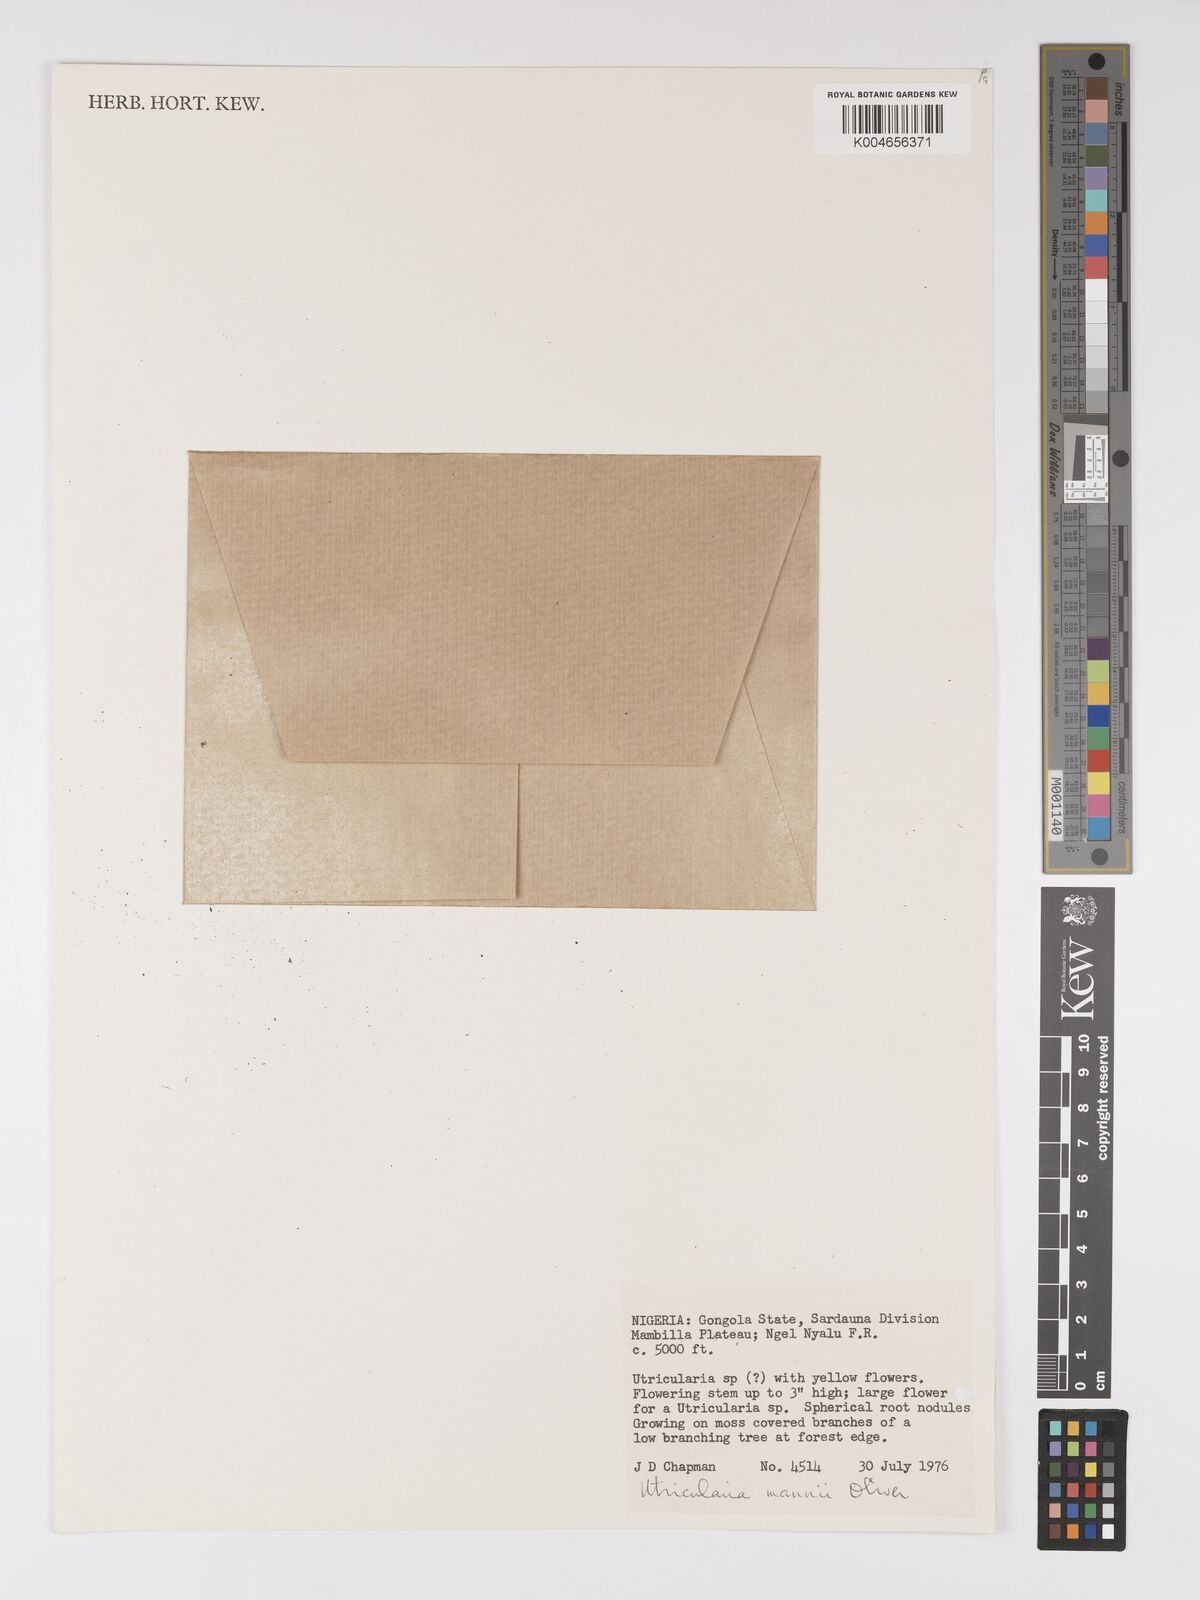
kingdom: Plantae
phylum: Tracheophyta
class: Magnoliopsida
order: Lamiales
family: Lentibulariaceae
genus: Utricularia
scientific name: Utricularia mannii
